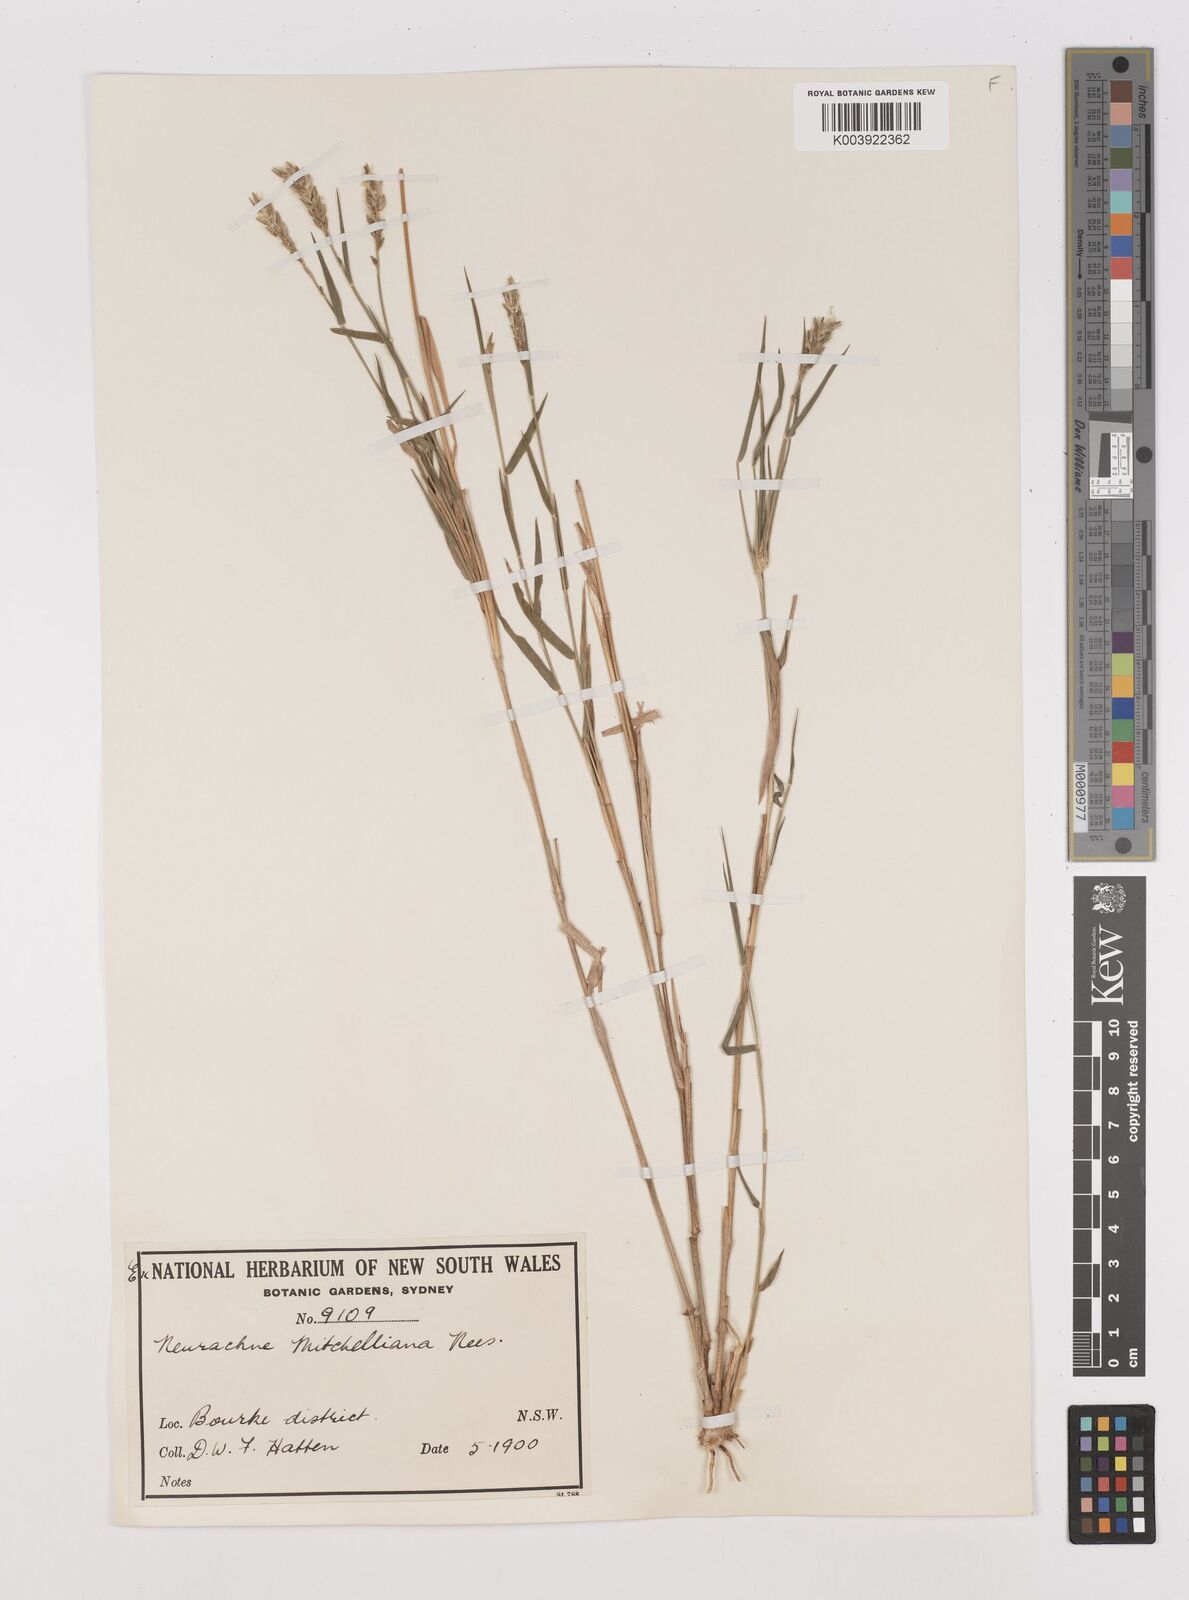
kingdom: Plantae
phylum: Tracheophyta
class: Liliopsida
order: Poales
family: Poaceae
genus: Thyridolepis
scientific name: Thyridolepis mitchelliana
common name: Rock tassel grass
